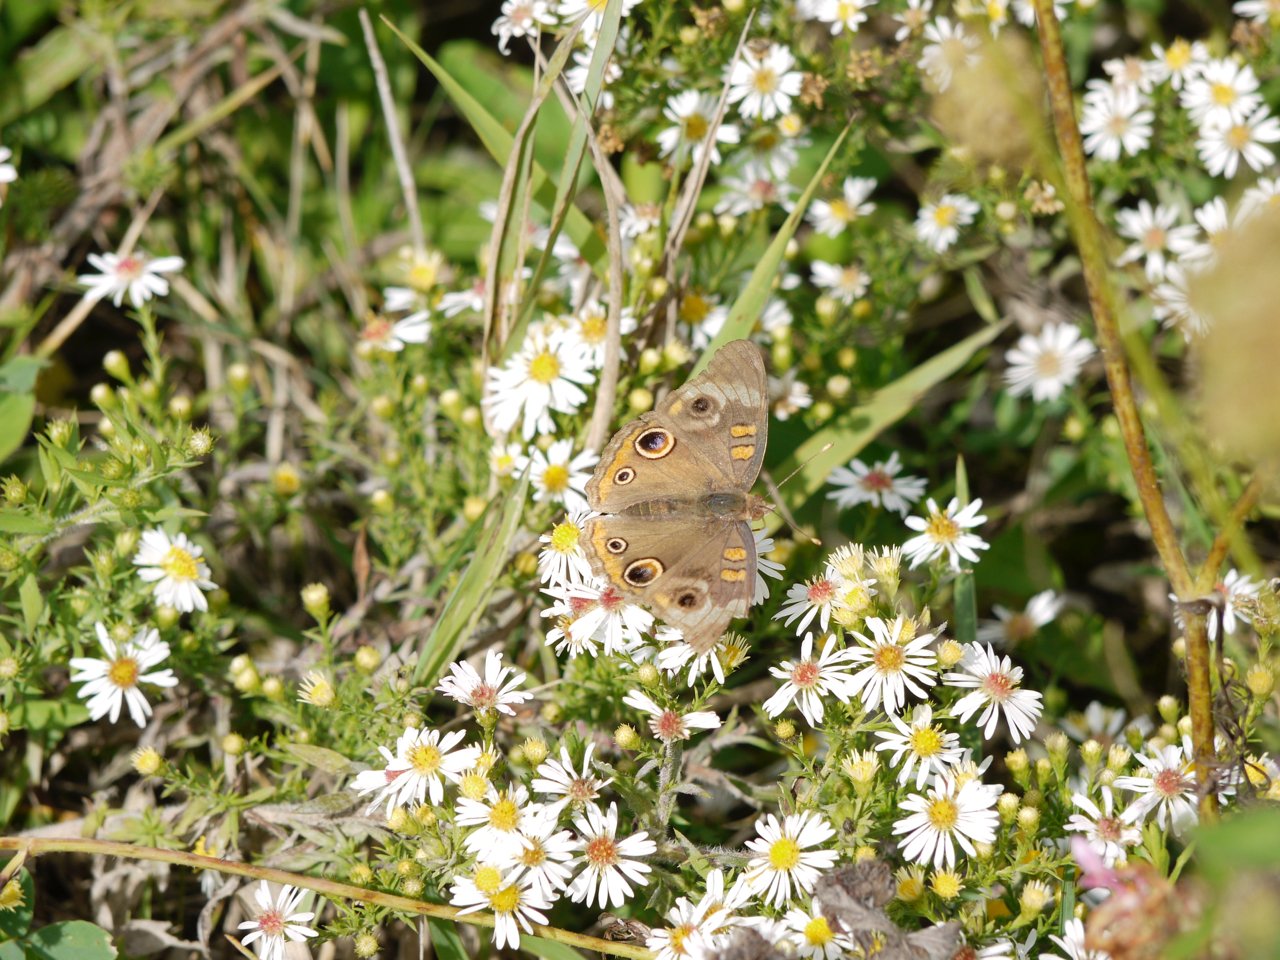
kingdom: Animalia
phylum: Arthropoda
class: Insecta
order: Lepidoptera
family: Nymphalidae
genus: Junonia
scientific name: Junonia coenia
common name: Common Buckeye
